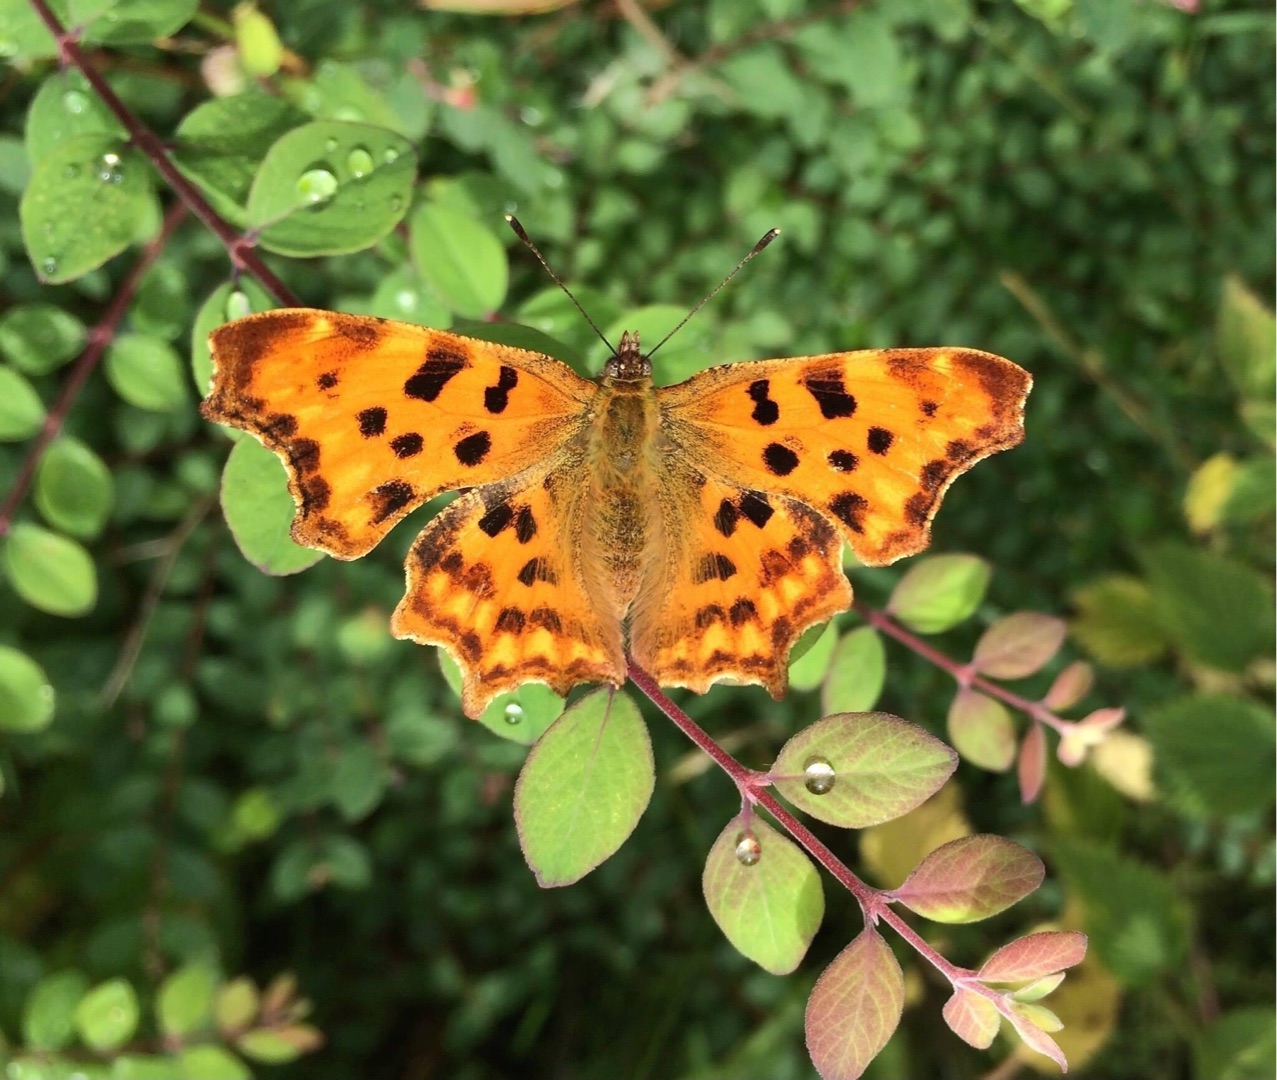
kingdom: Animalia
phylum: Arthropoda
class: Insecta
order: Lepidoptera
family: Nymphalidae
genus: Polygonia
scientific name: Polygonia c-album
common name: Det hvide C
